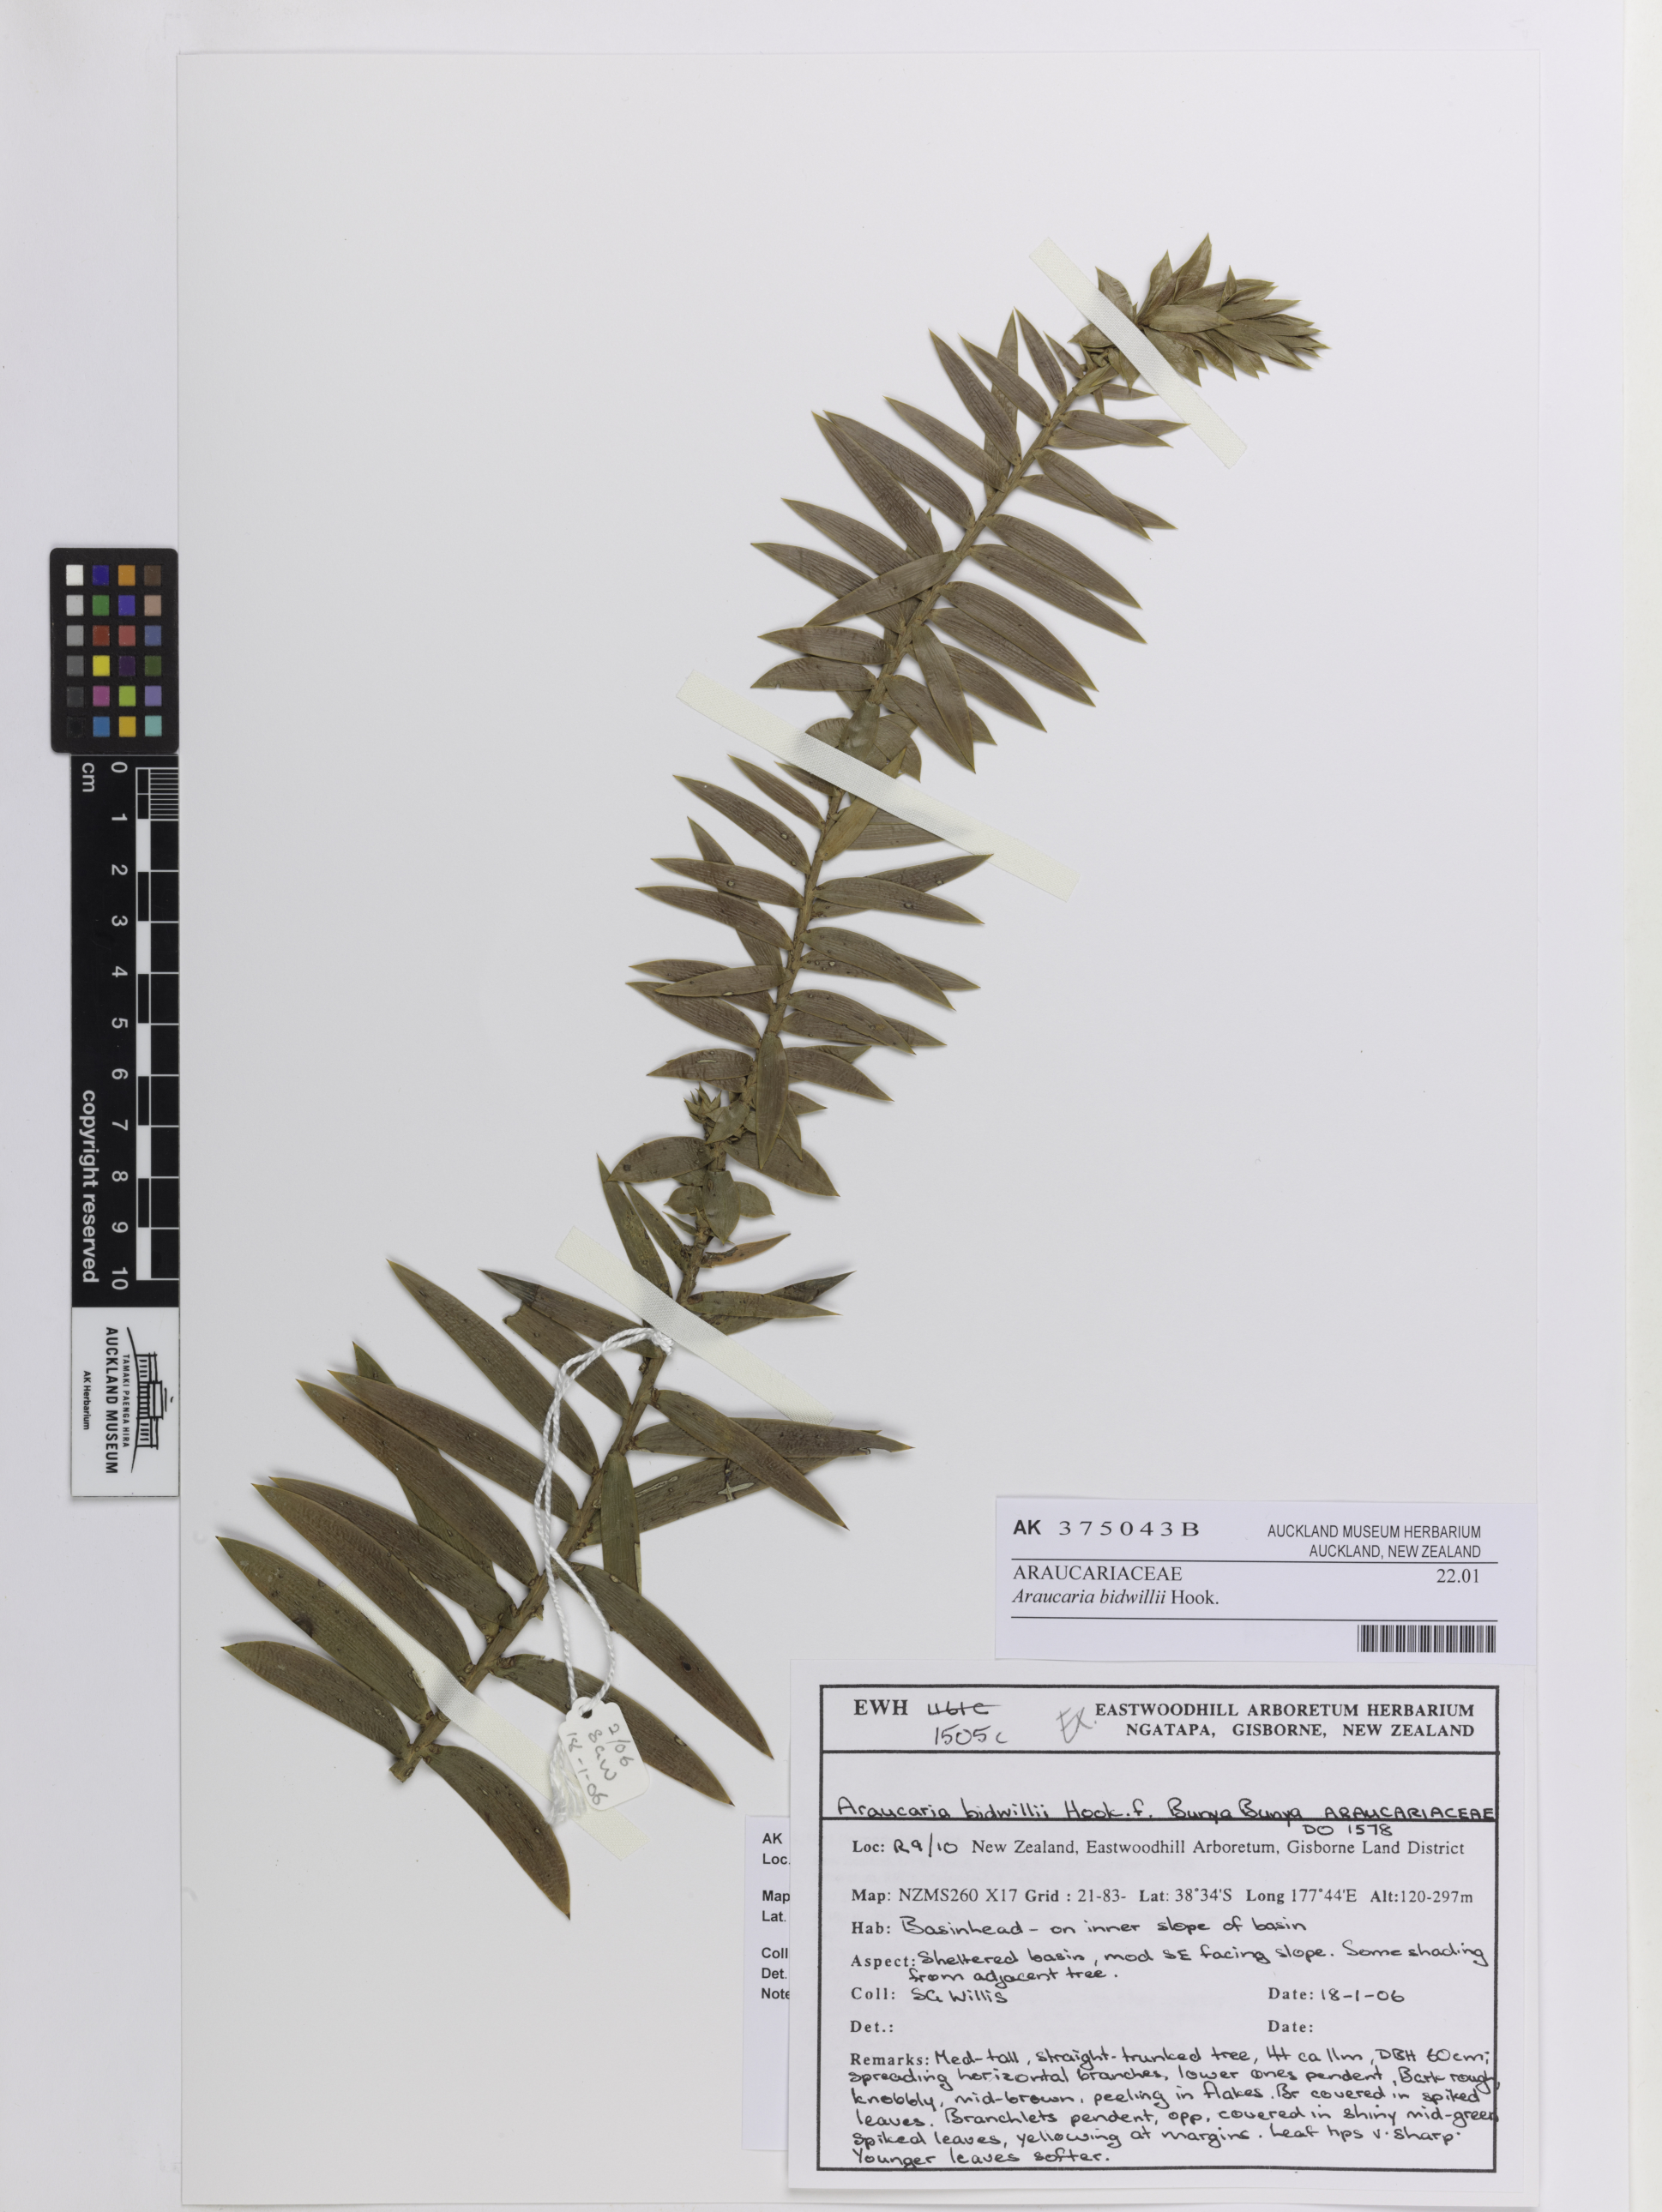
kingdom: Plantae
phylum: Tracheophyta
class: Pinopsida
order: Pinales
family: Araucariaceae
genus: Araucaria
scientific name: Araucaria bidwillii
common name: Moreton-bay-pine
